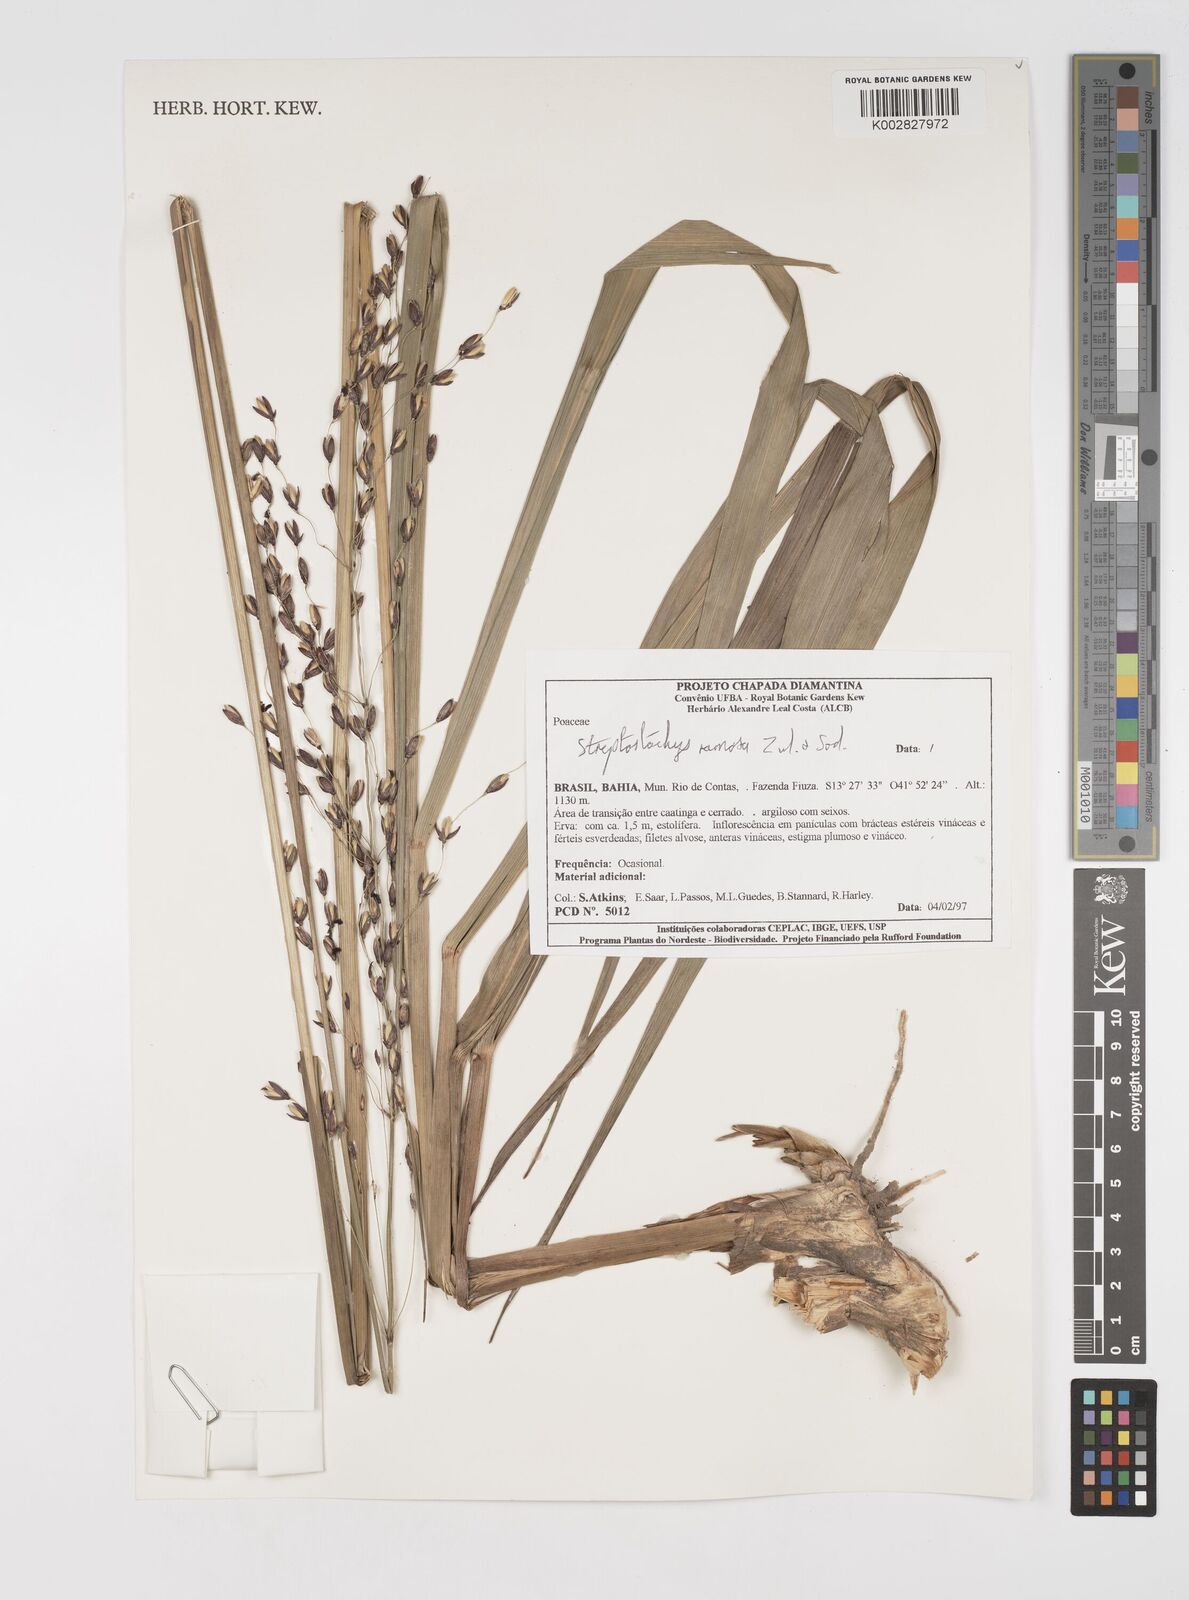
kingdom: Plantae
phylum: Tracheophyta
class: Liliopsida
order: Poales
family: Poaceae
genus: Oncorachis
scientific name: Oncorachis ramosa
